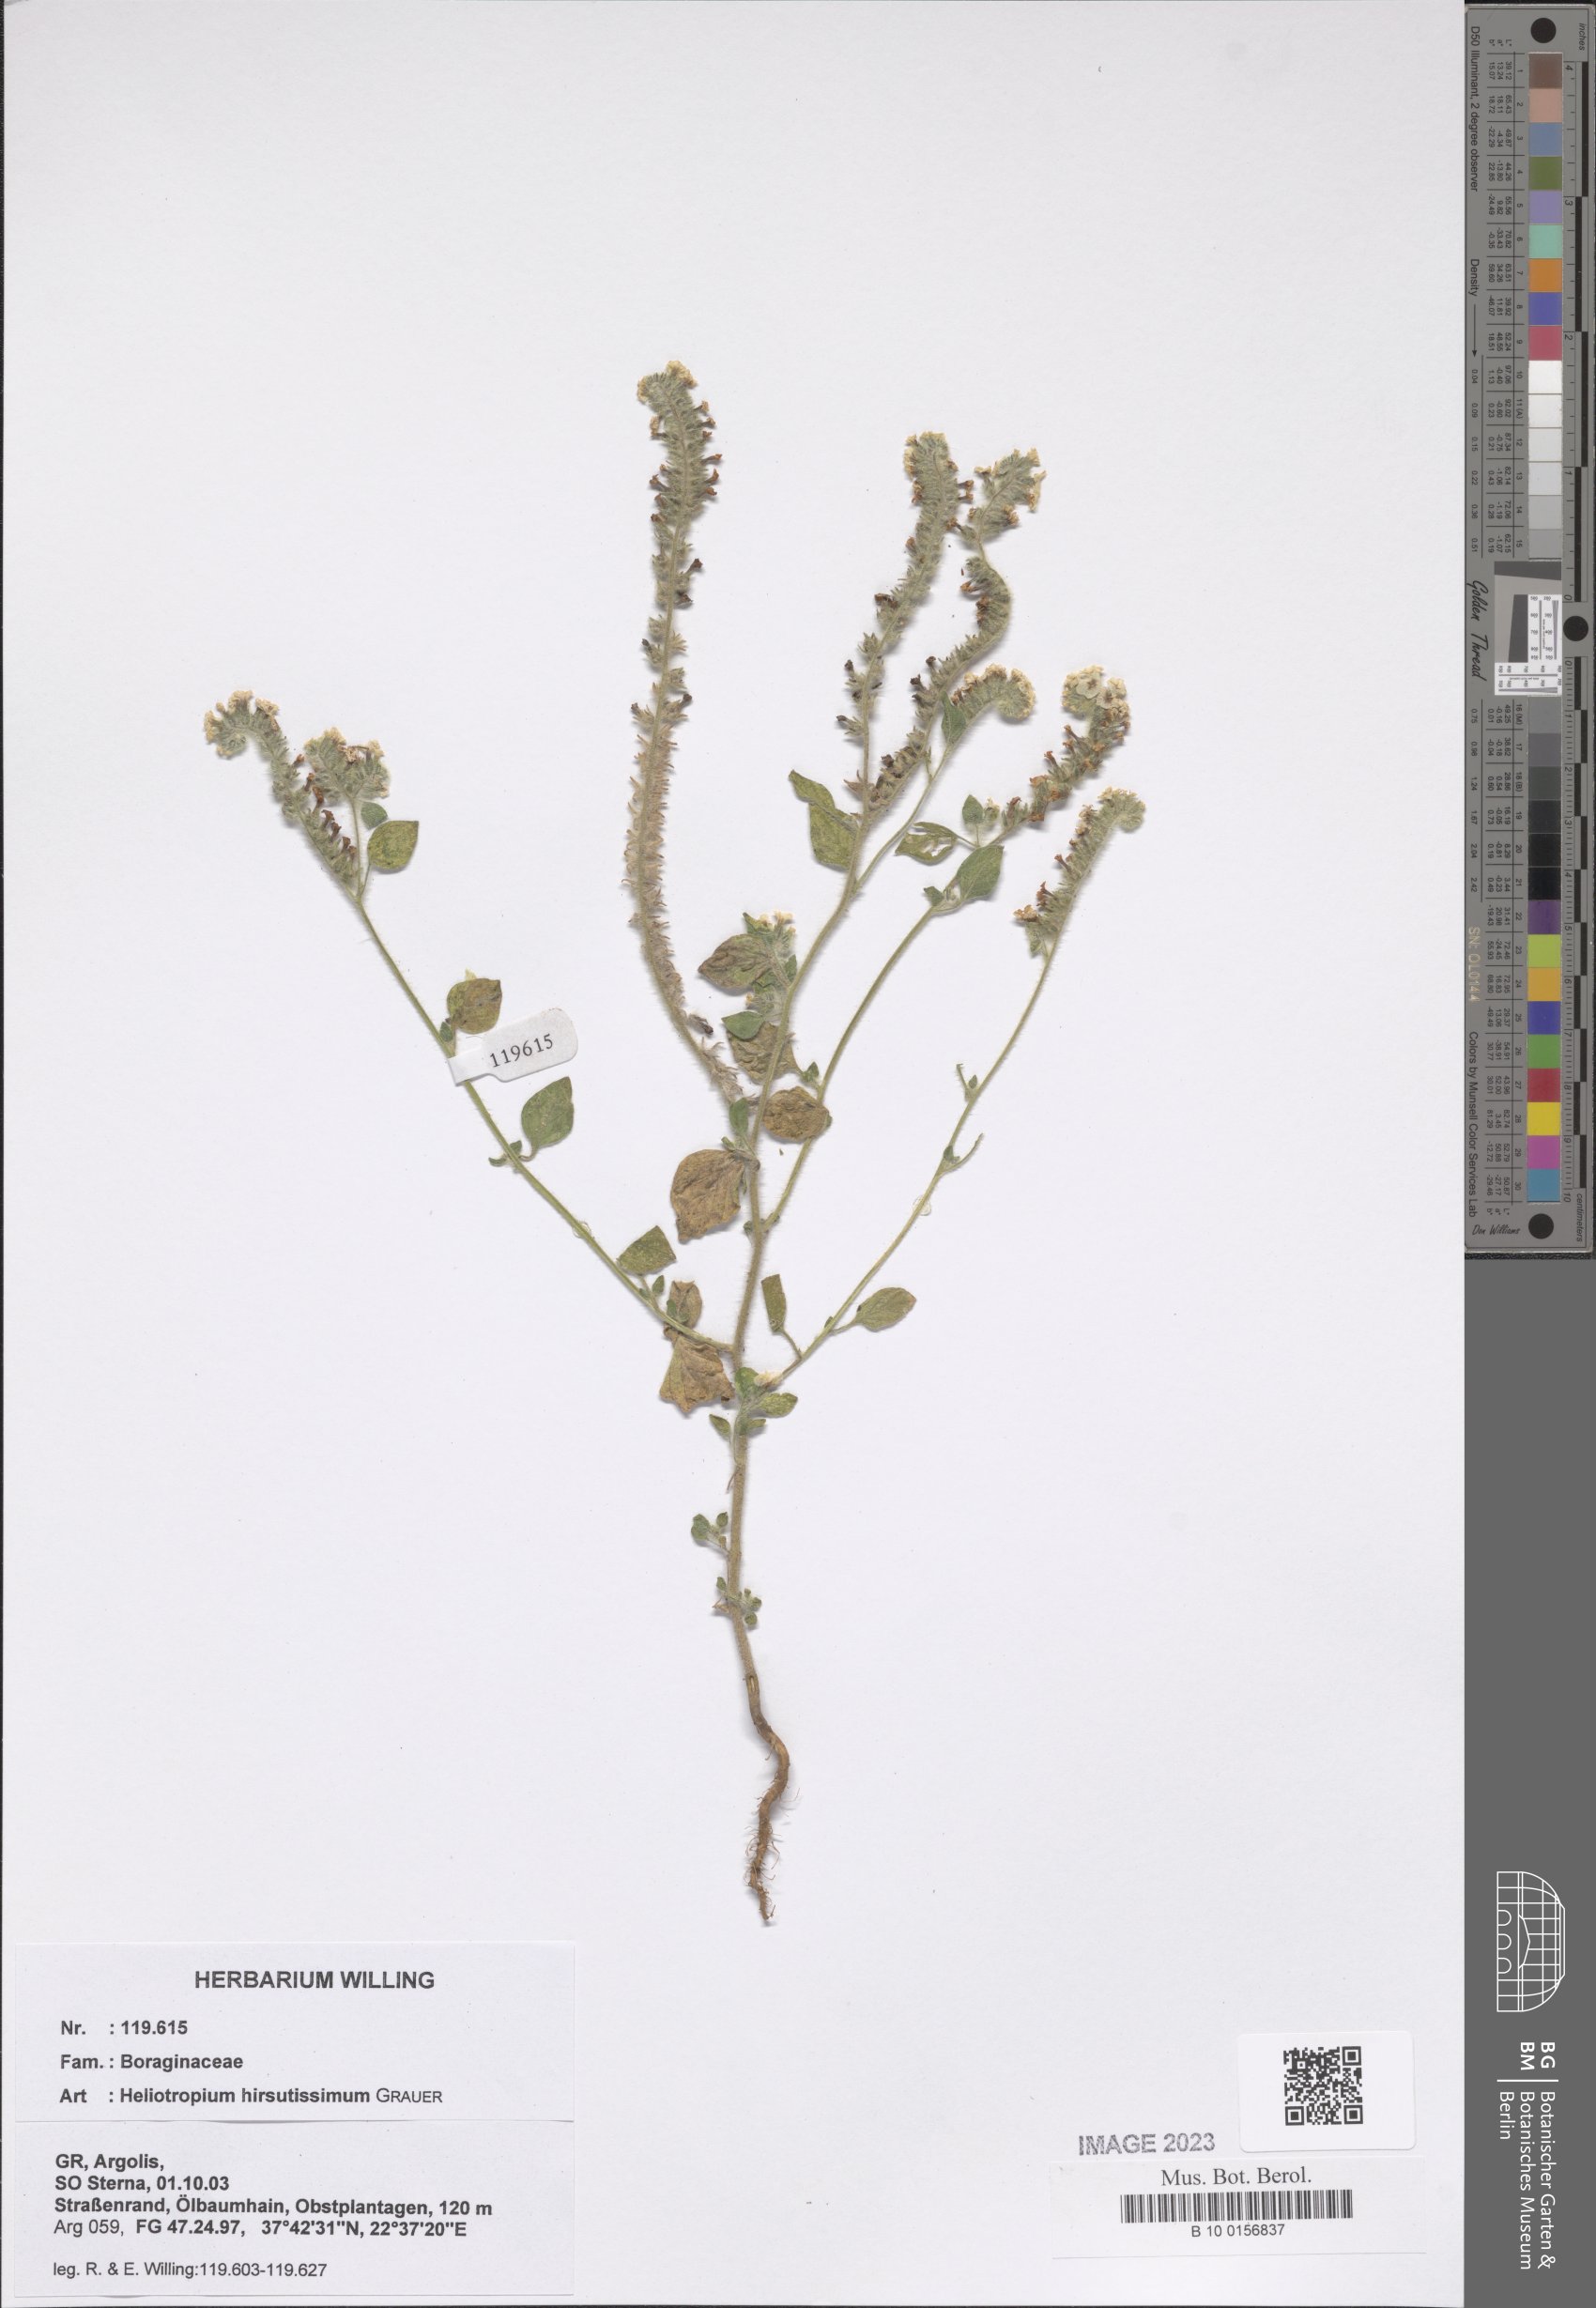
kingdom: Plantae
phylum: Tracheophyta
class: Magnoliopsida
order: Boraginales
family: Heliotropiaceae
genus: Heliotropium
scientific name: Heliotropium hirsutissimum
